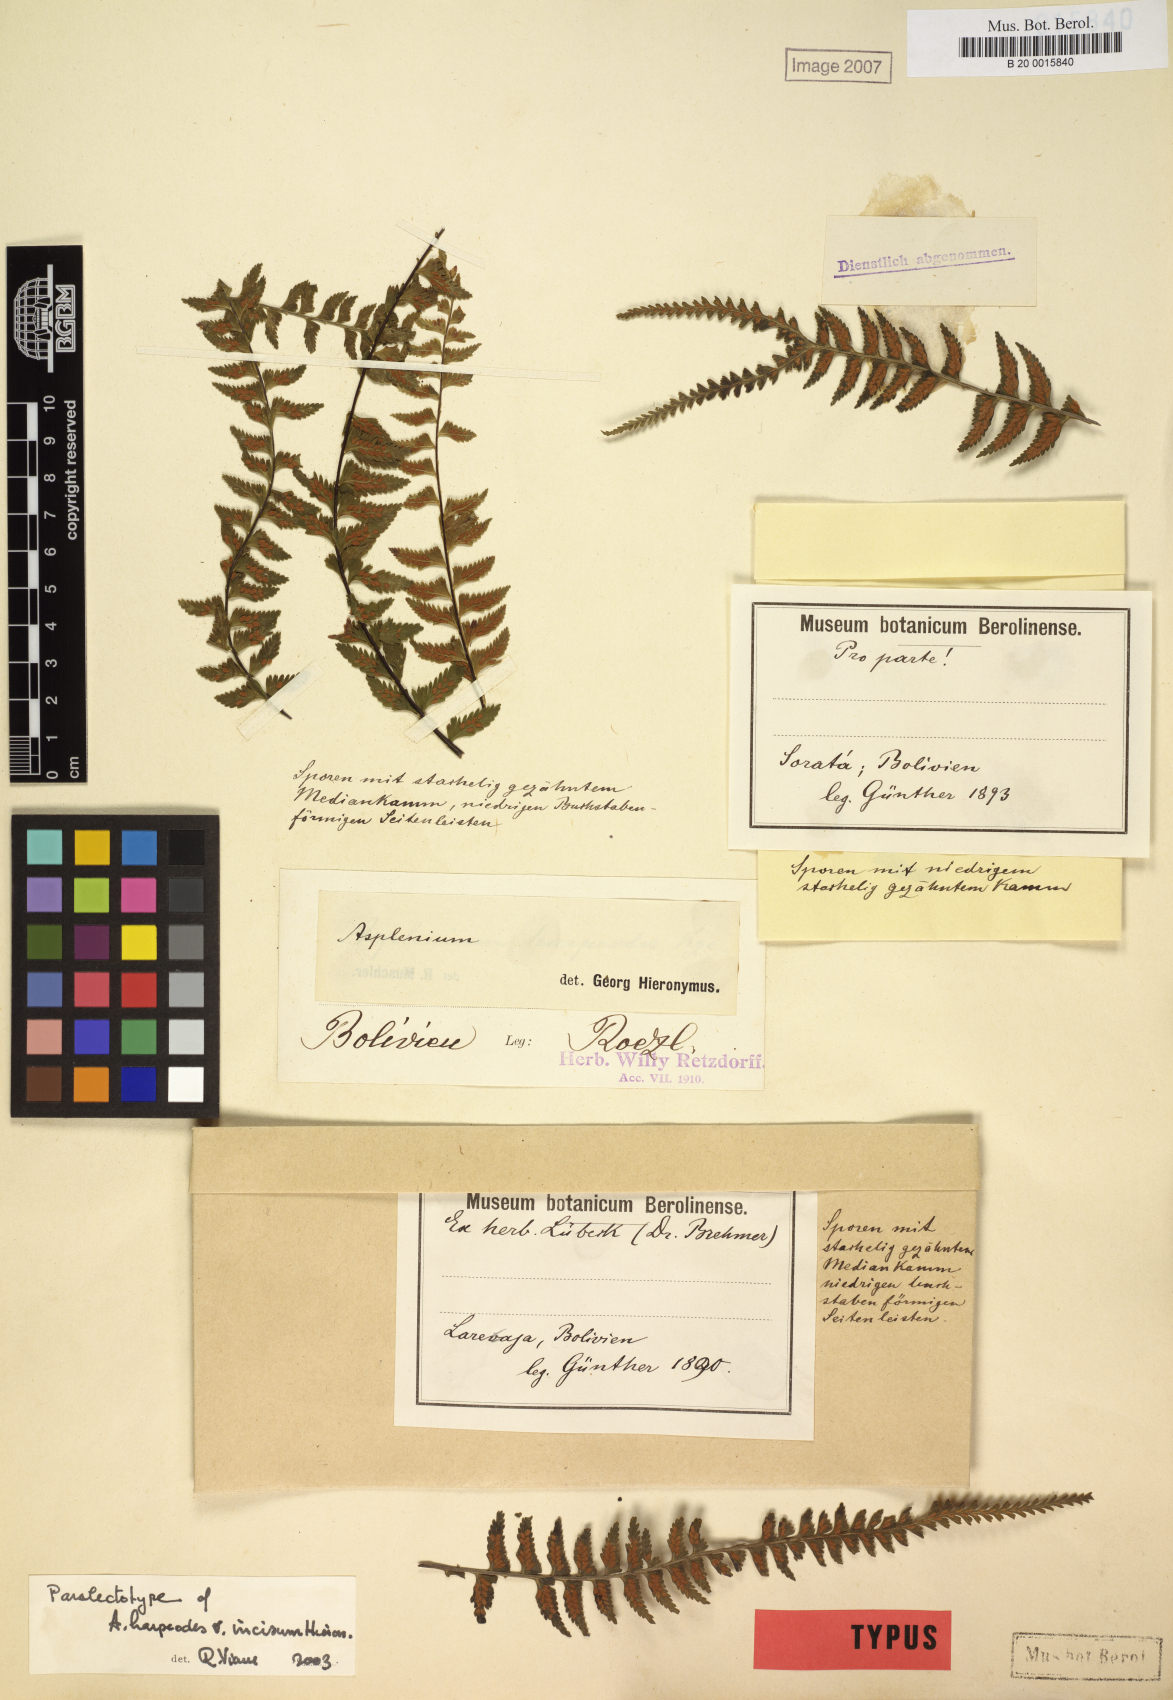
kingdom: Plantae
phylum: Tracheophyta
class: Polypodiopsida
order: Polypodiales
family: Aspleniaceae
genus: Asplenium
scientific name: Asplenium harpeodes
